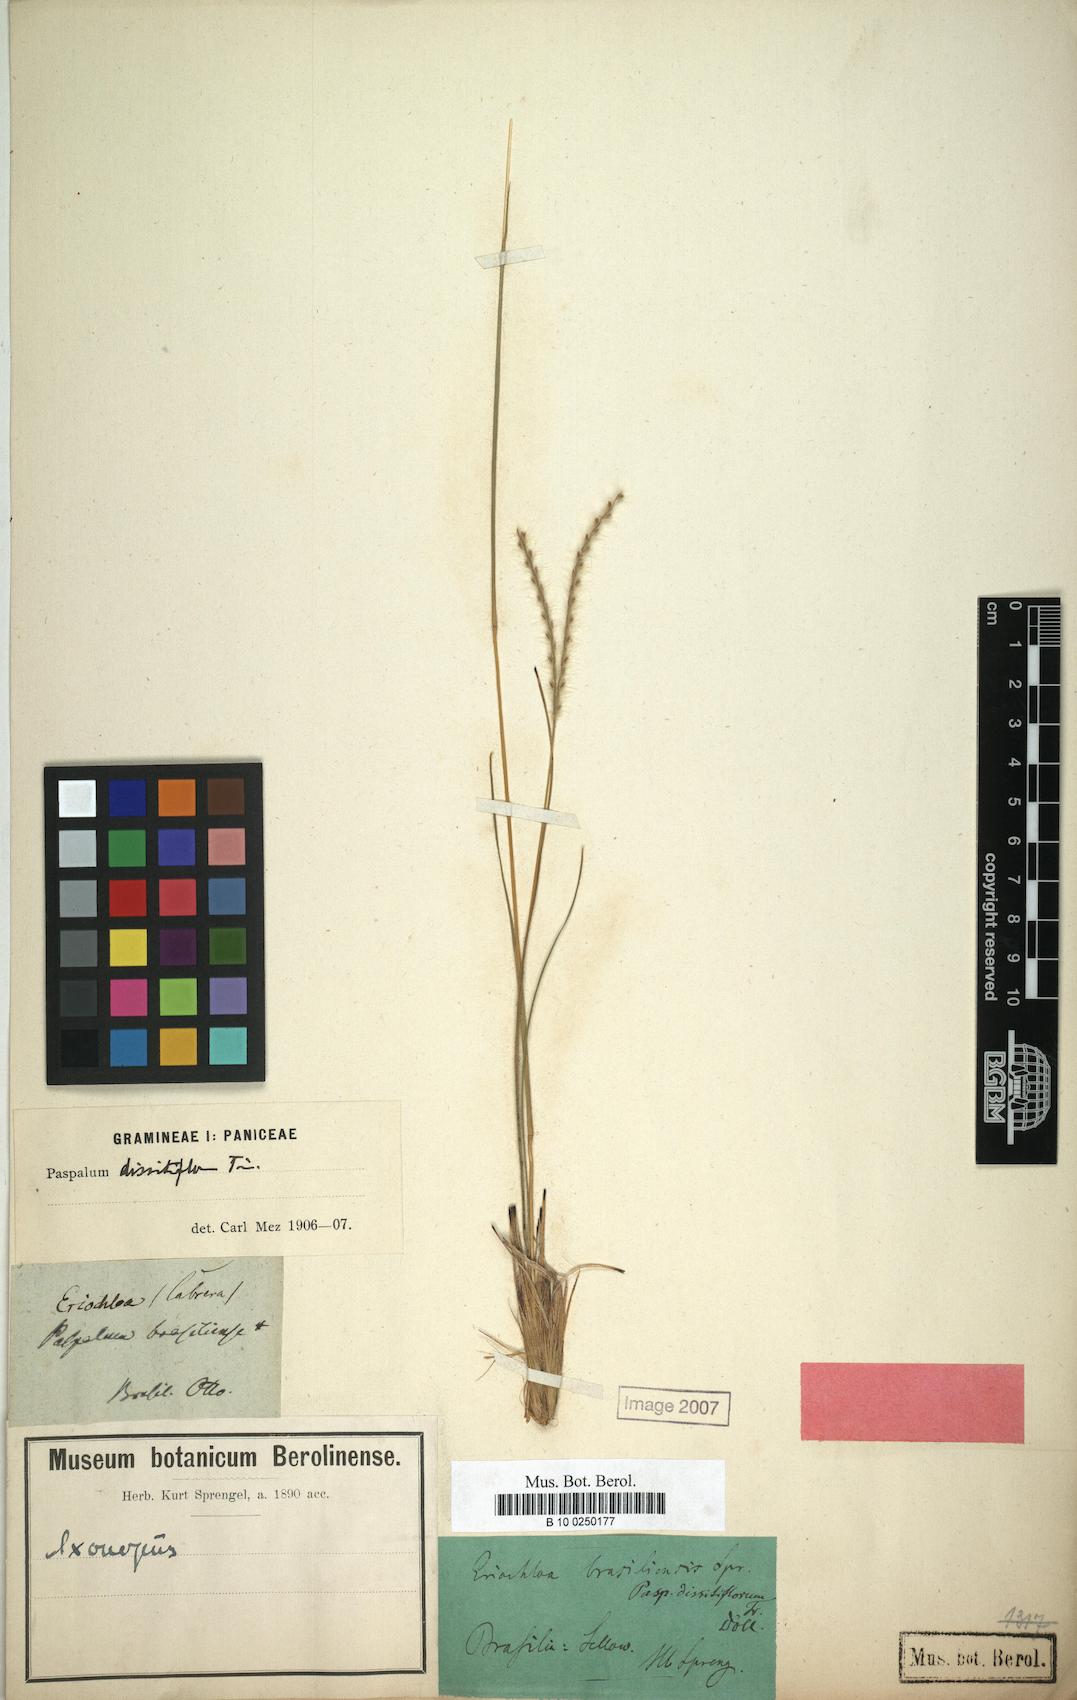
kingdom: Plantae
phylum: Tracheophyta
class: Liliopsida
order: Poales
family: Poaceae
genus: Axonopus
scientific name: Axonopus brasiliensis
